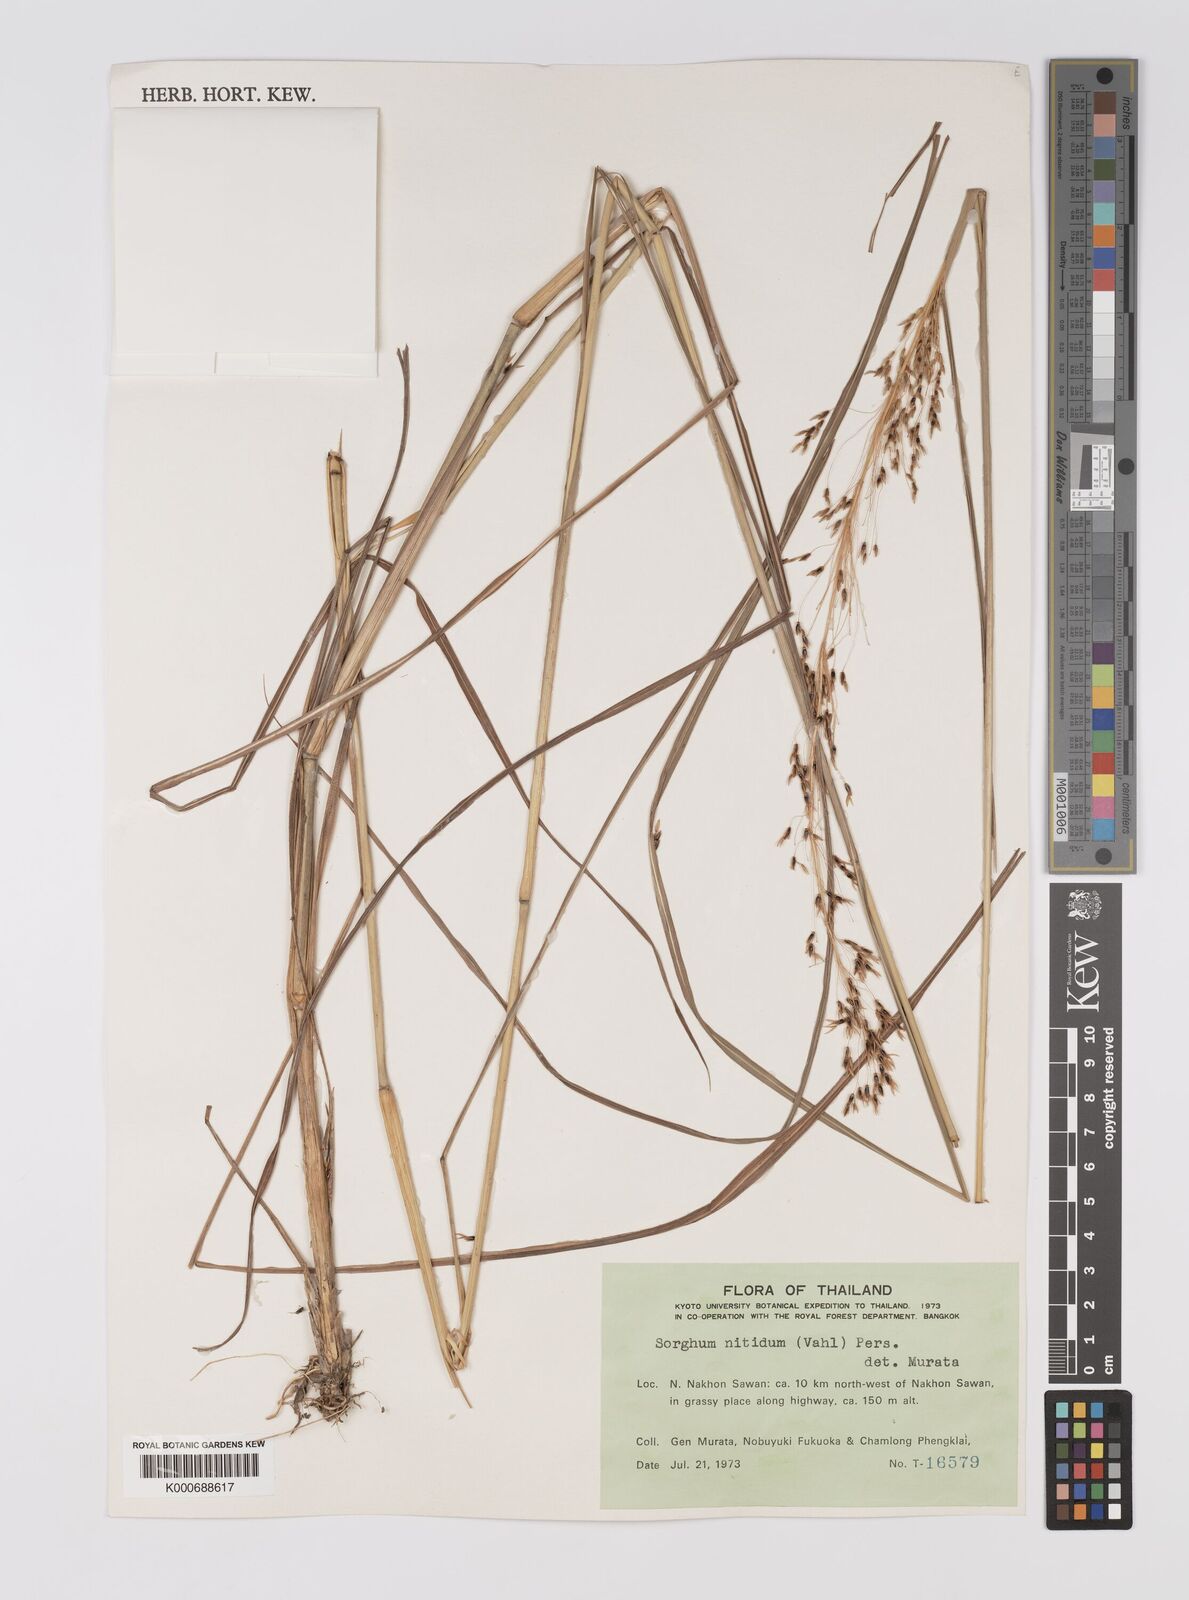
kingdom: Plantae
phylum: Tracheophyta
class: Liliopsida
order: Poales
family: Poaceae
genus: Sorghum
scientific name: Sorghum nitidum
